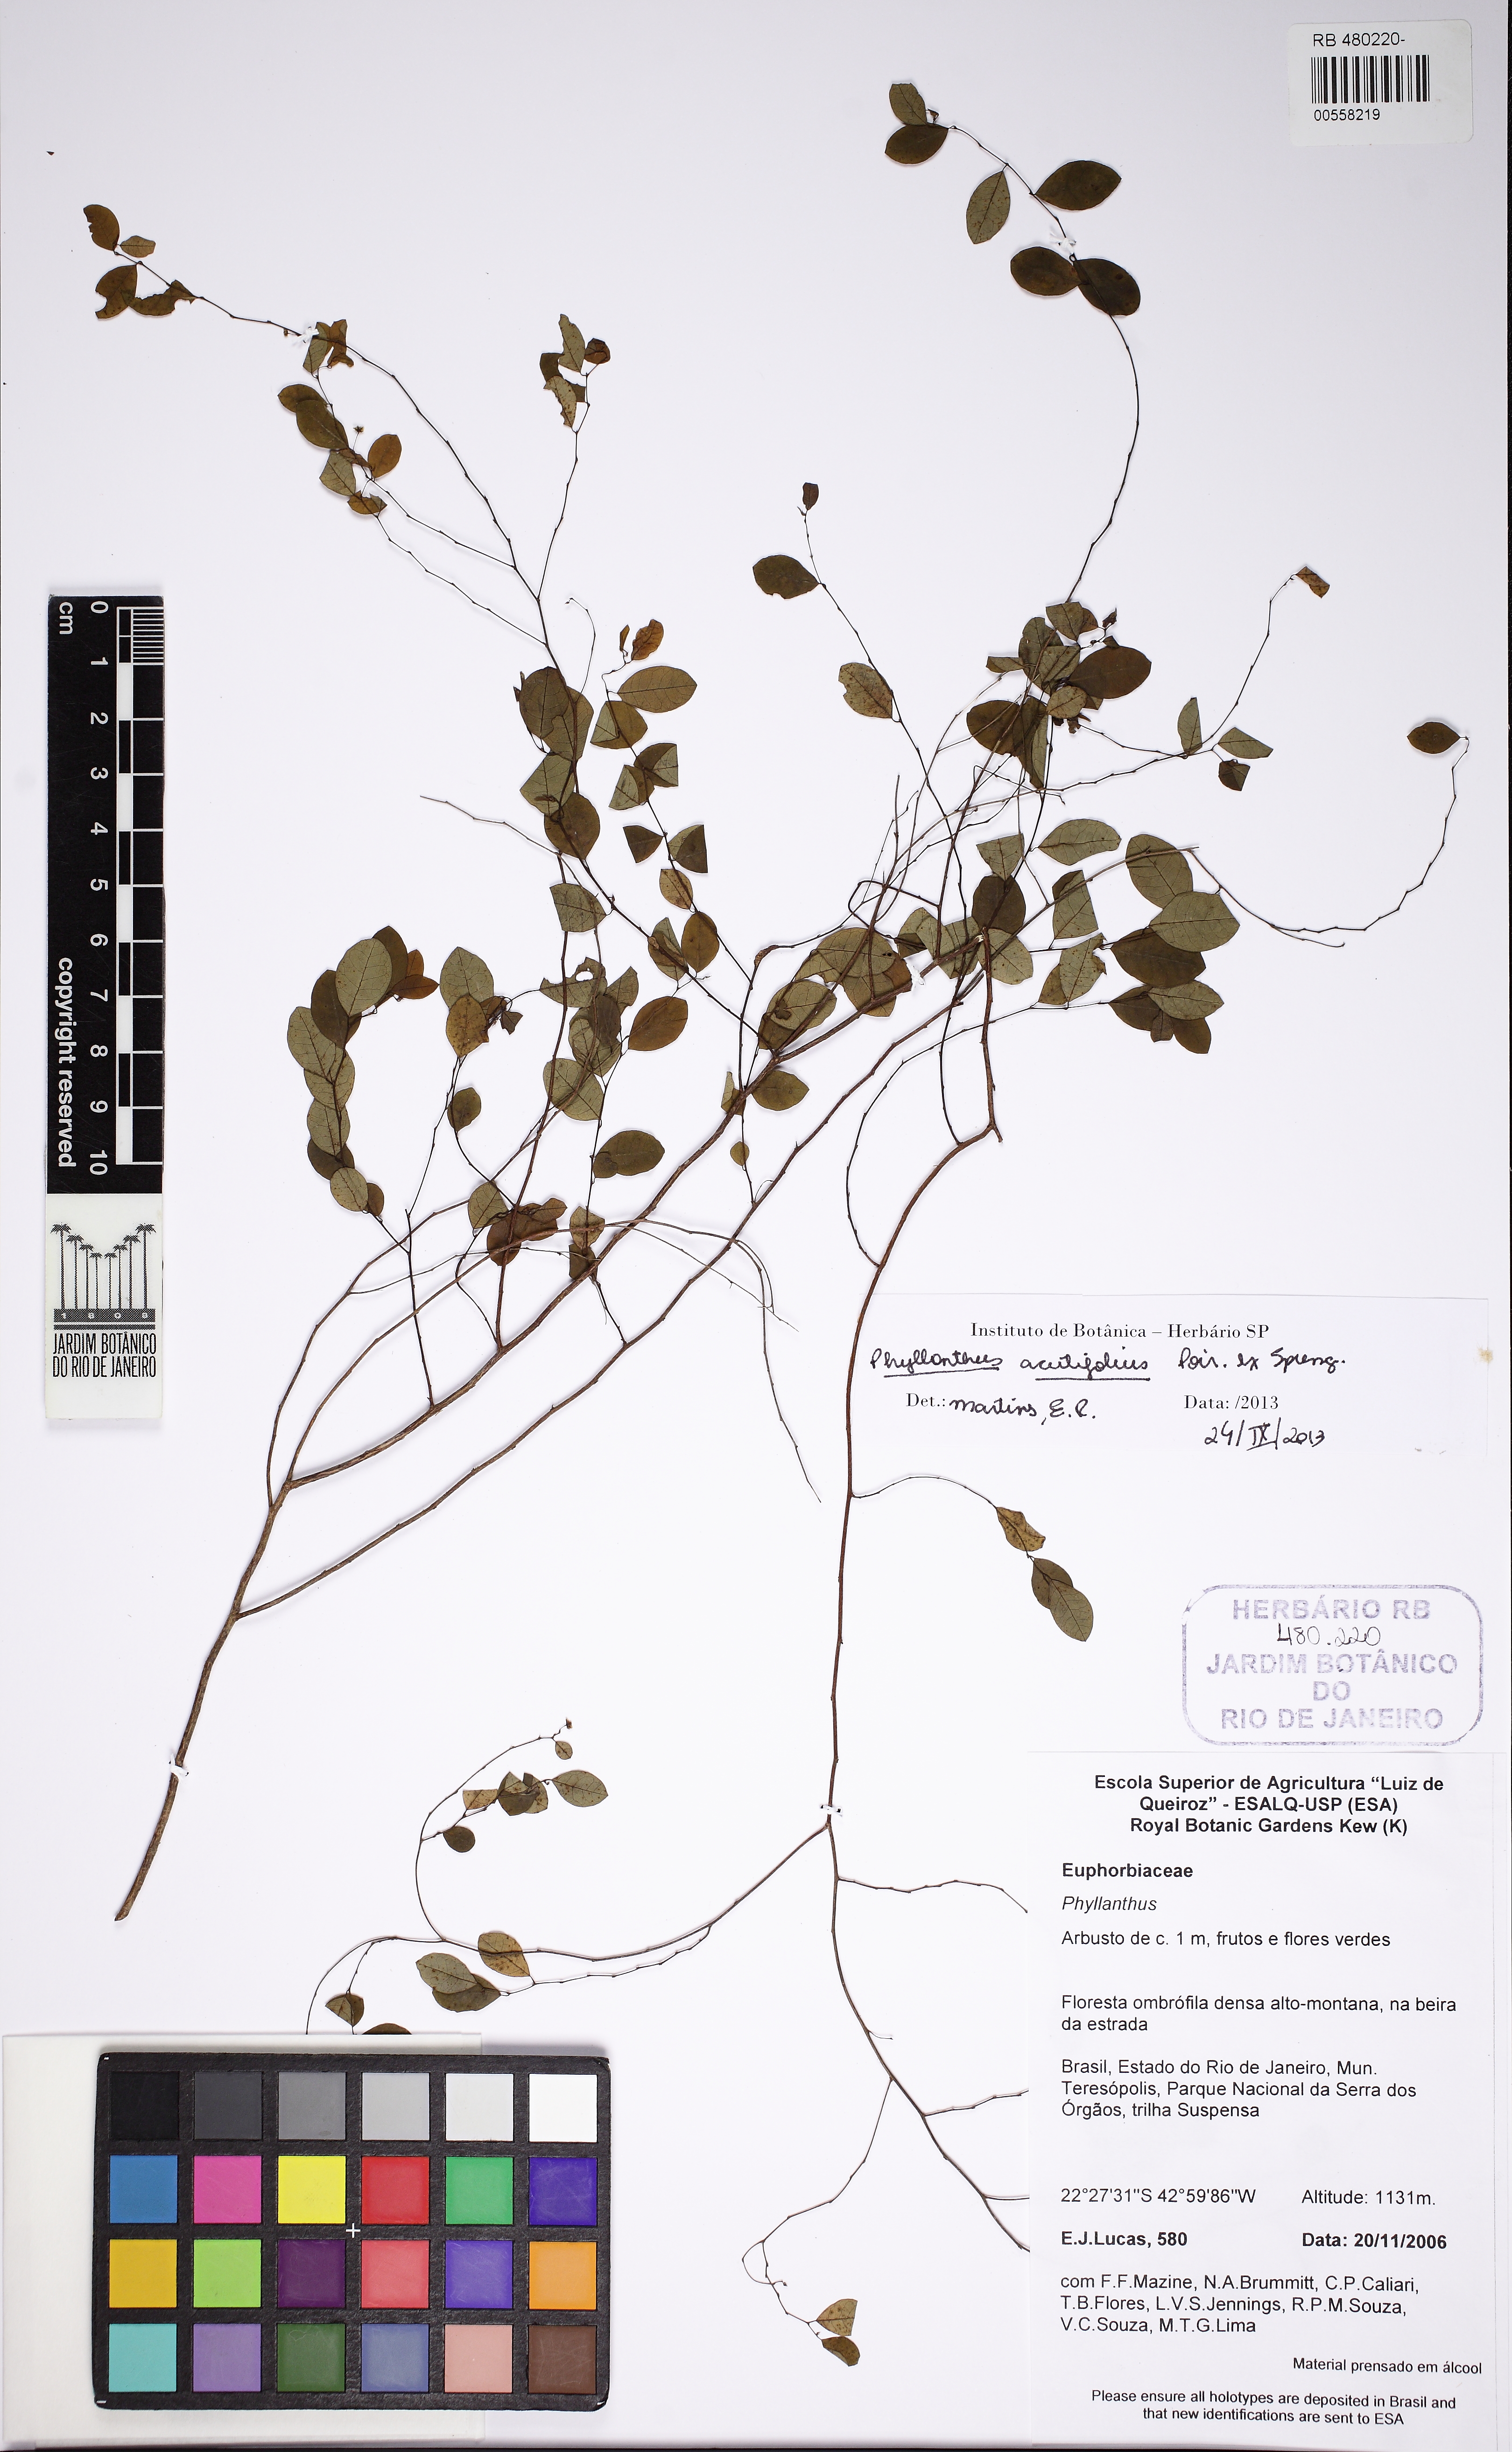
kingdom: Plantae
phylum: Tracheophyta
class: Magnoliopsida
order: Malpighiales
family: Phyllanthaceae
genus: Phyllanthus
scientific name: Phyllanthus subemarginatus
